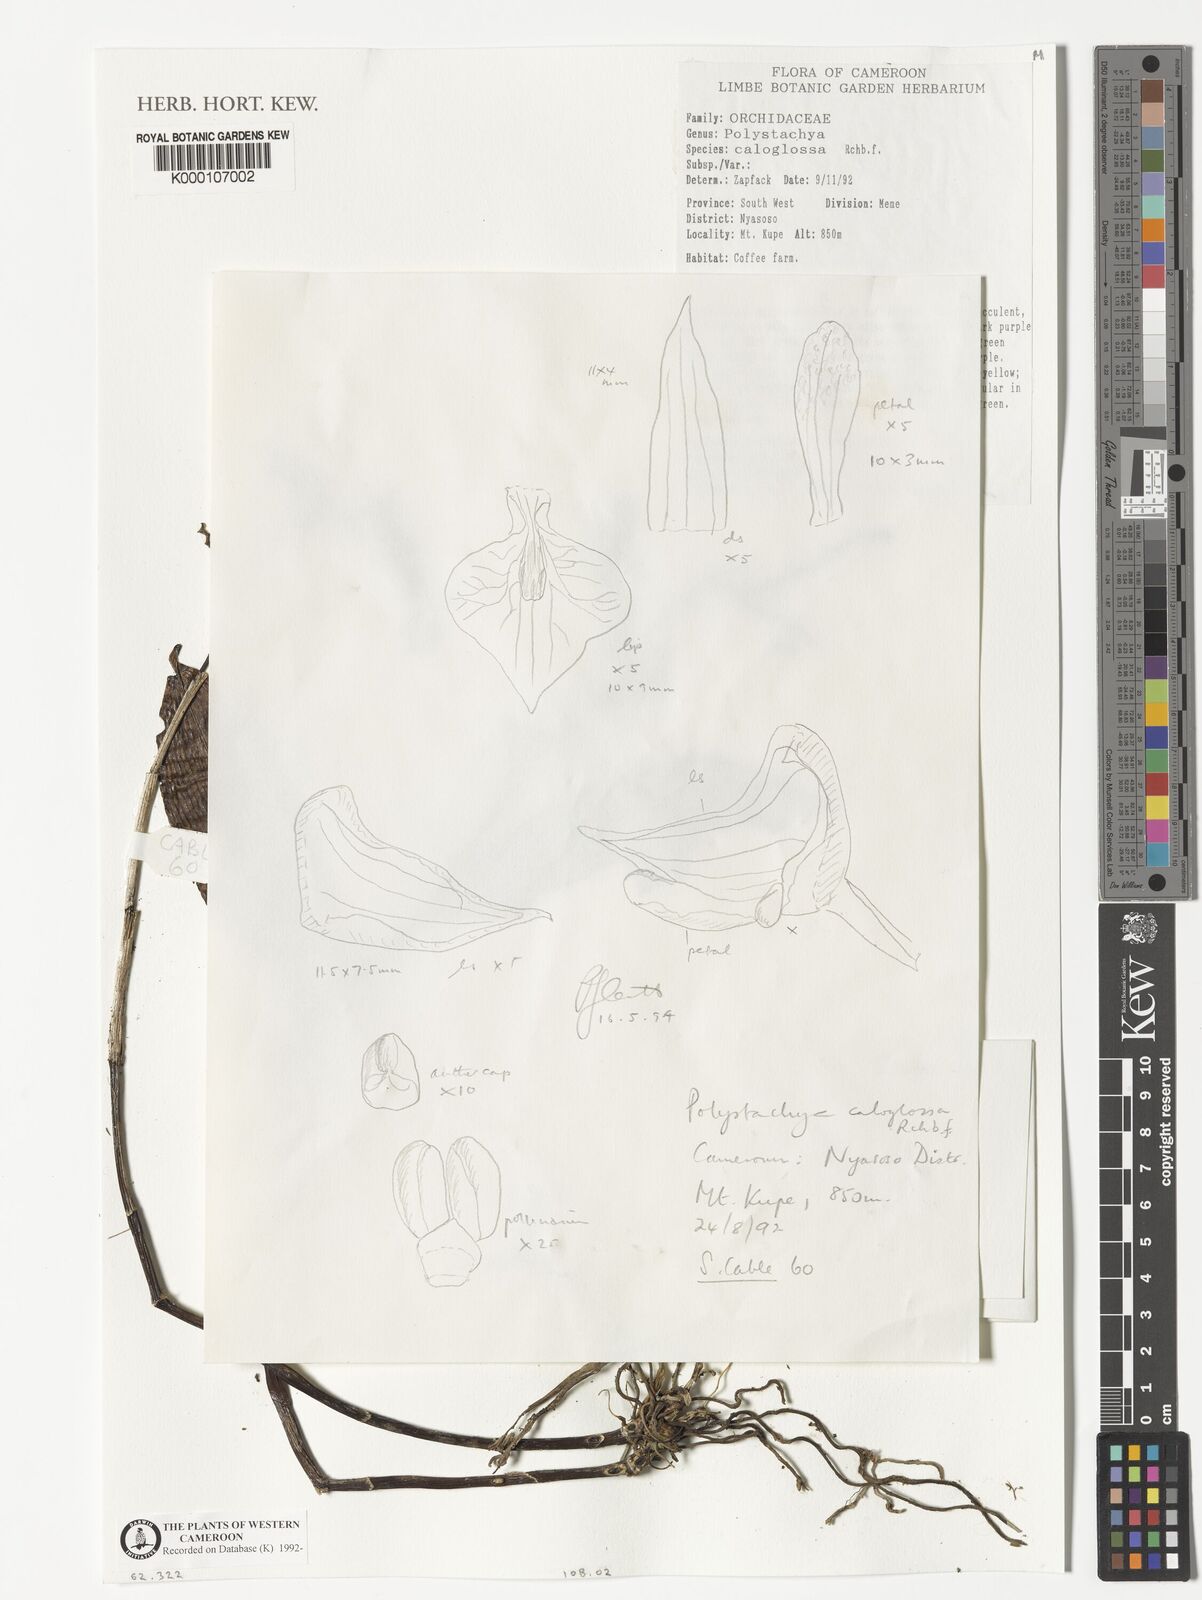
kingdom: Plantae
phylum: Tracheophyta
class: Liliopsida
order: Asparagales
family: Orchidaceae
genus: Polystachya
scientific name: Polystachya caloglossa
